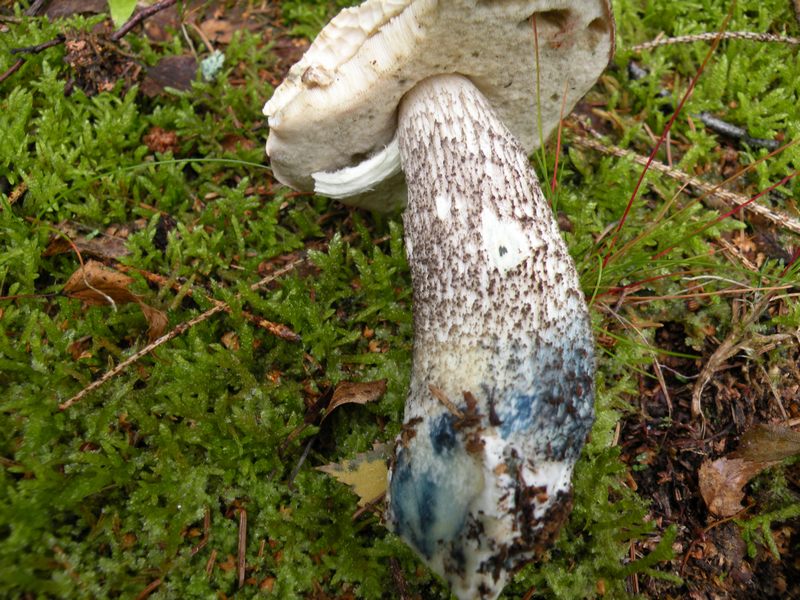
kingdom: Fungi
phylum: Basidiomycota
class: Agaricomycetes
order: Boletales
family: Boletaceae
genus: Leccinum
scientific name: Leccinum variicolor
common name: flammet skælrørhat
